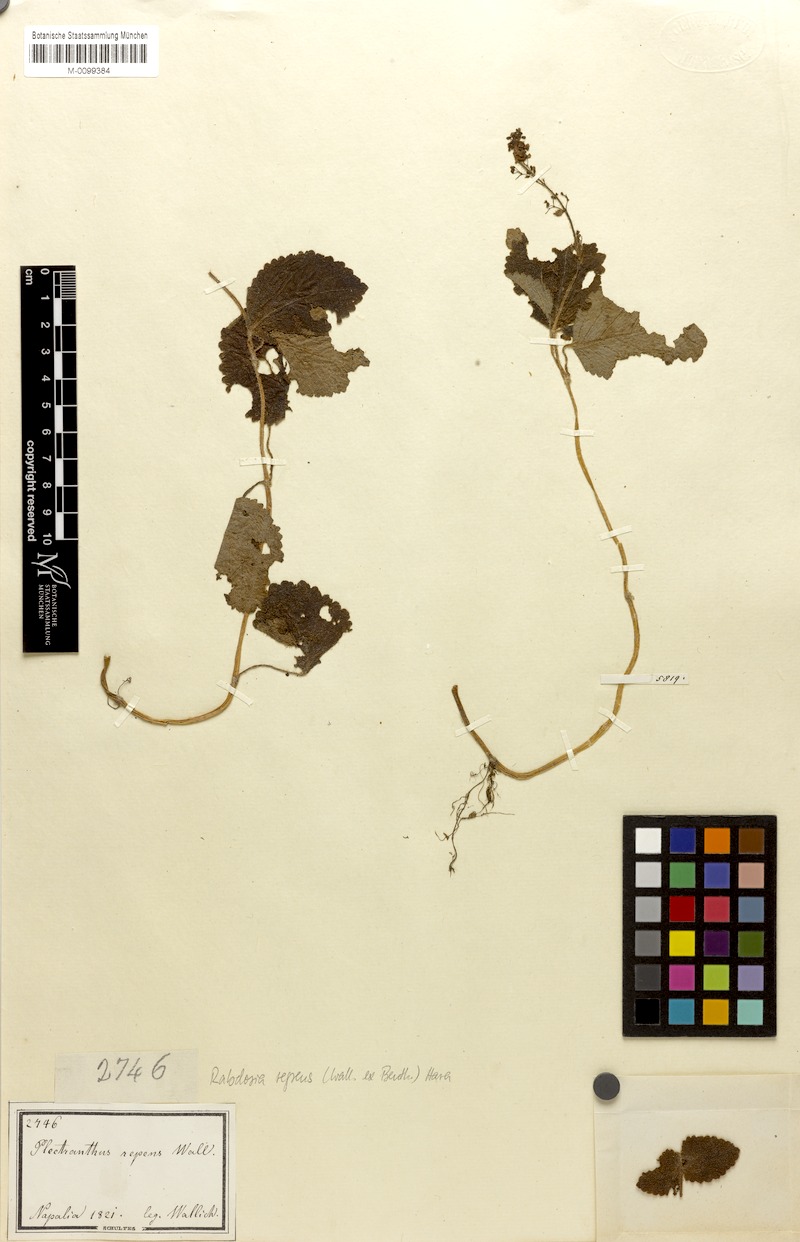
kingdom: Plantae
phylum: Tracheophyta
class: Magnoliopsida
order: Lamiales
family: Lamiaceae
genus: Isodon
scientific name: Isodon repens
